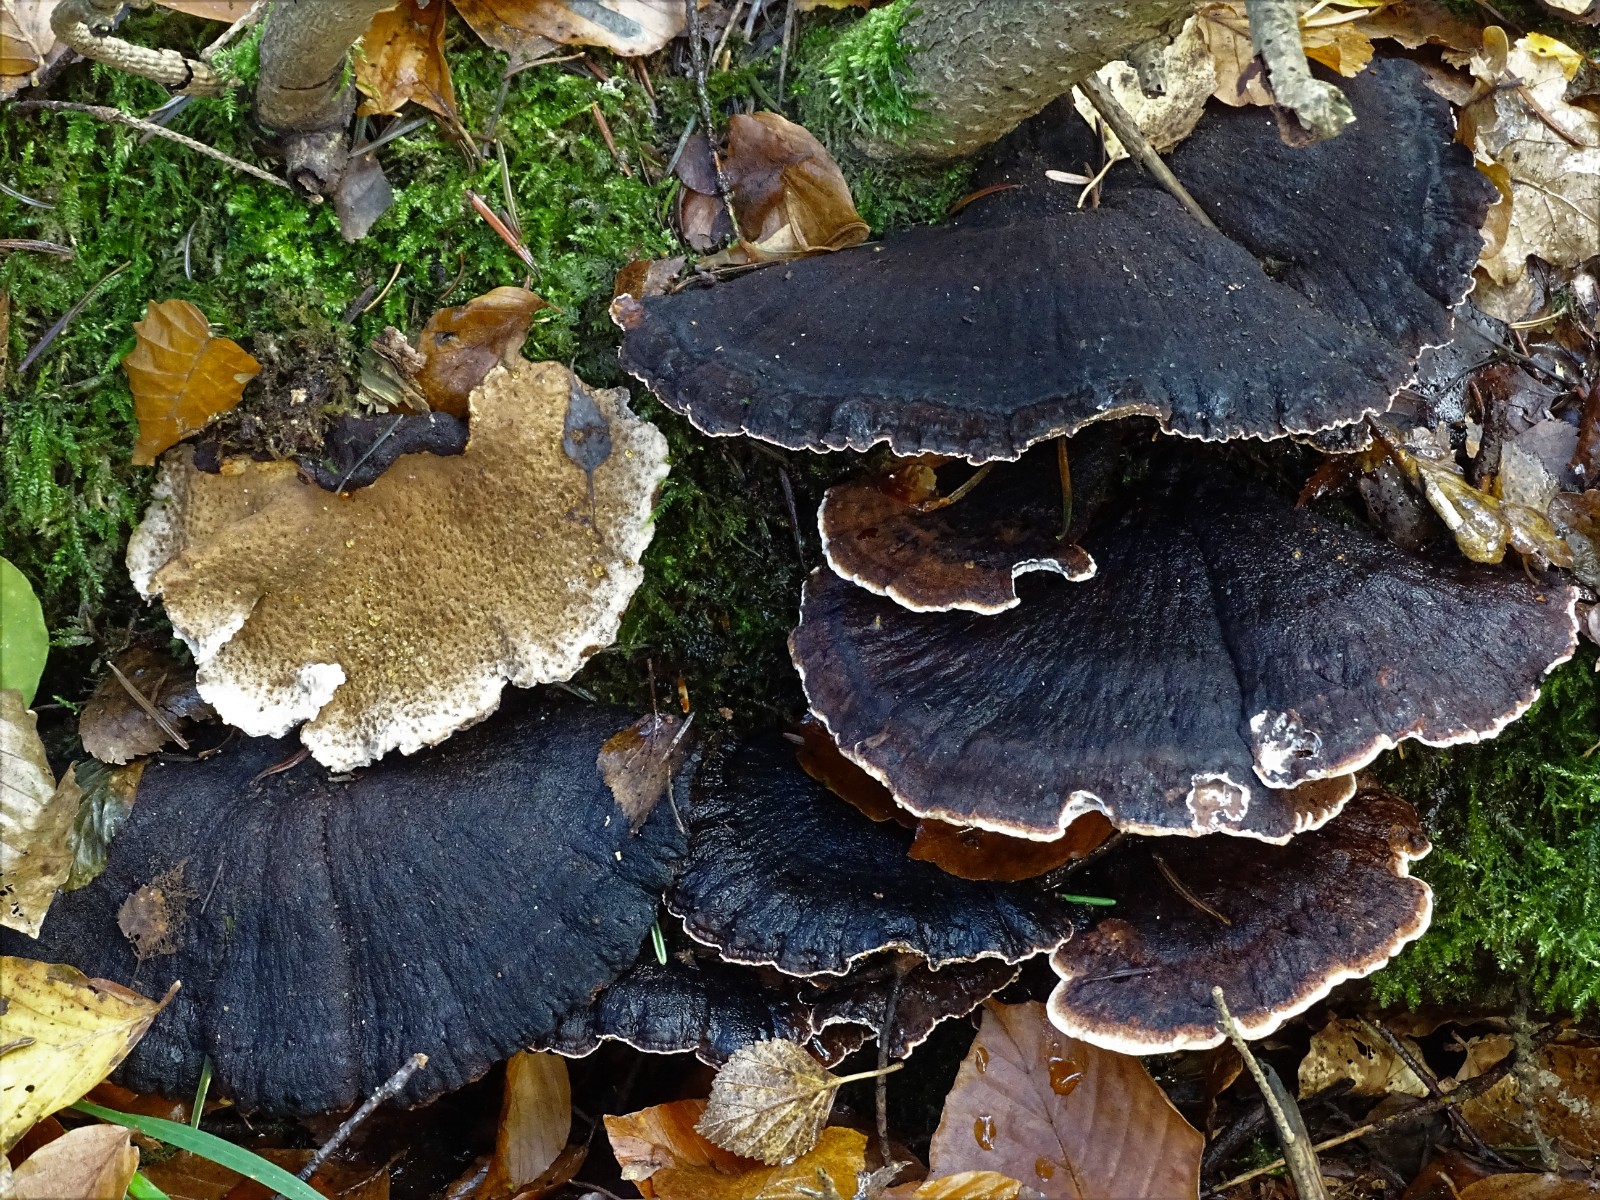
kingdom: Fungi
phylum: Basidiomycota
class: Agaricomycetes
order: Polyporales
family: Ischnodermataceae
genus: Ischnoderma
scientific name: Ischnoderma benzoinum
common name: gran-tjæreporesvamp
